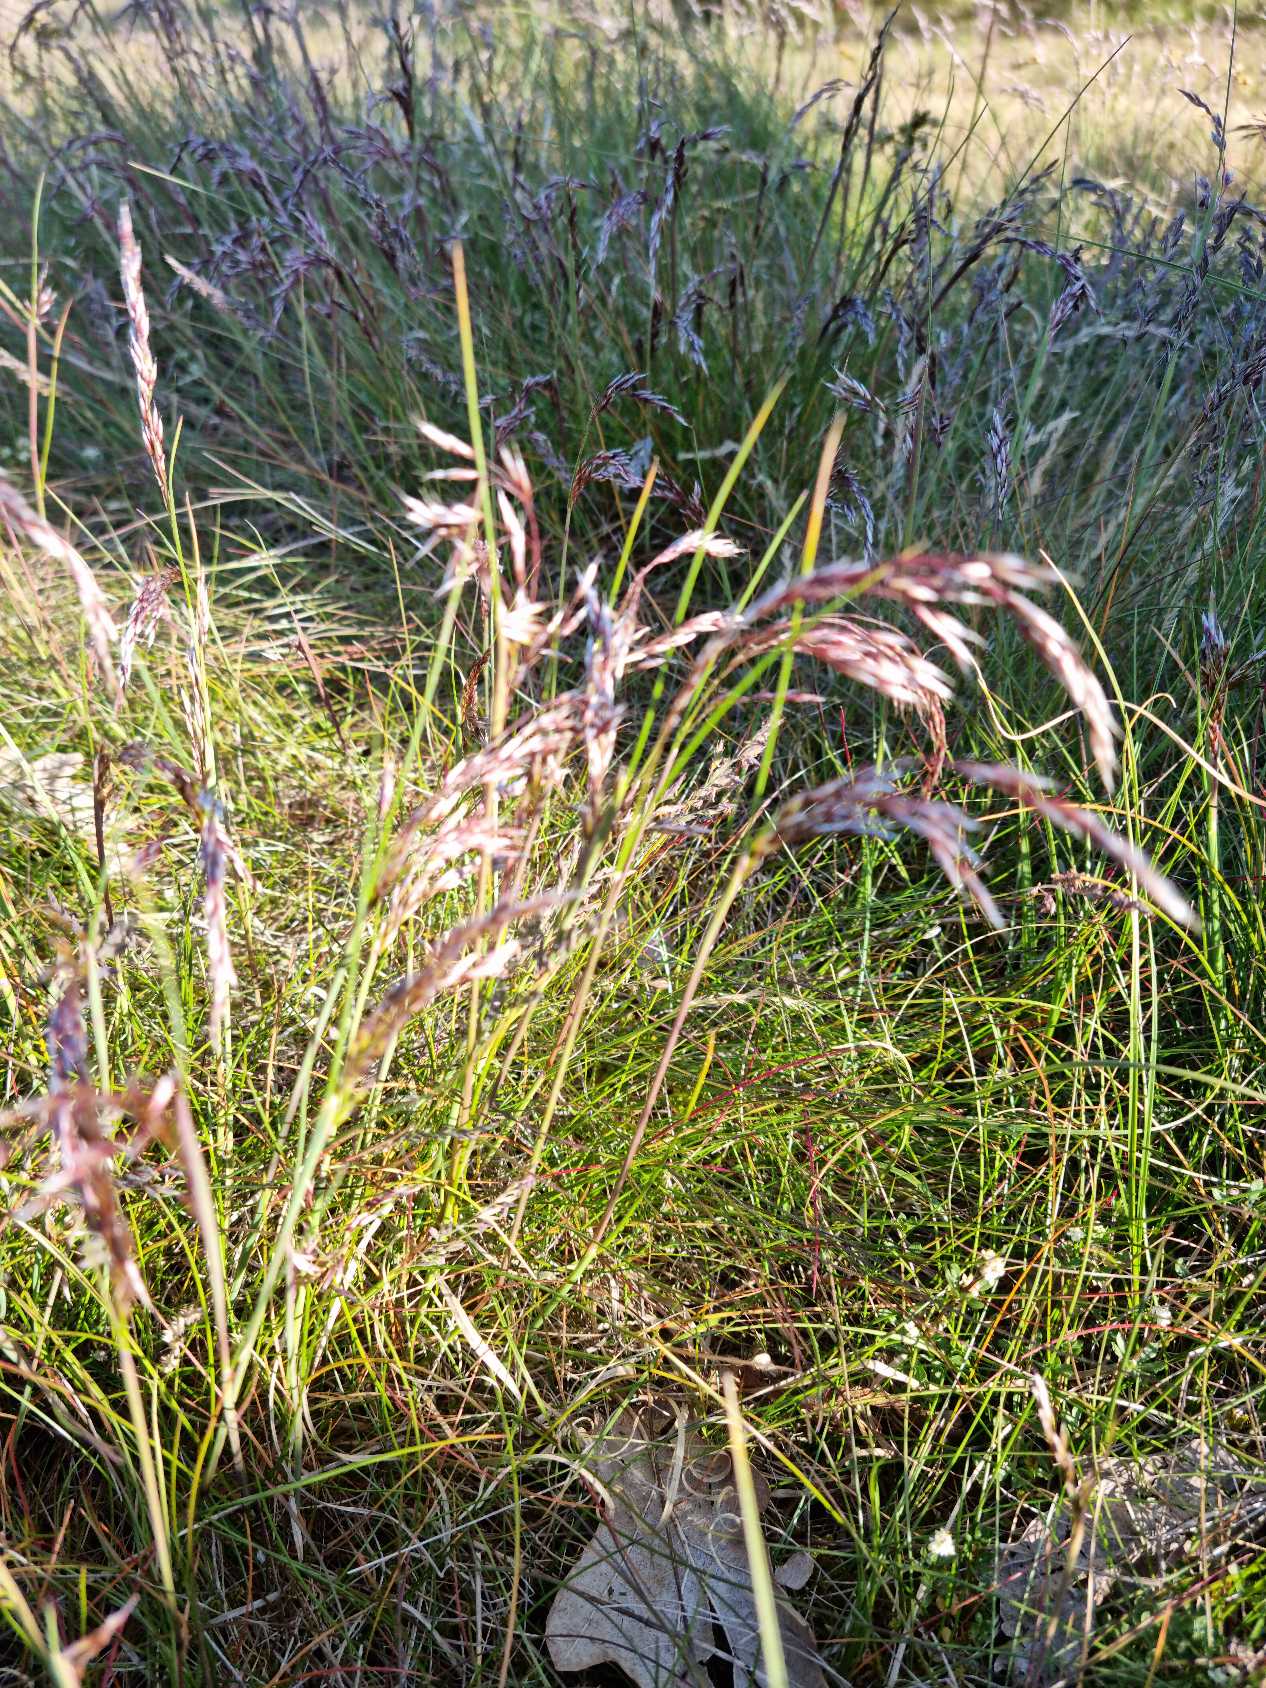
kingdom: Plantae
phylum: Tracheophyta
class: Liliopsida
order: Poales
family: Poaceae
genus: Avenella
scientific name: Avenella flexuosa
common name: Bølget bunke
